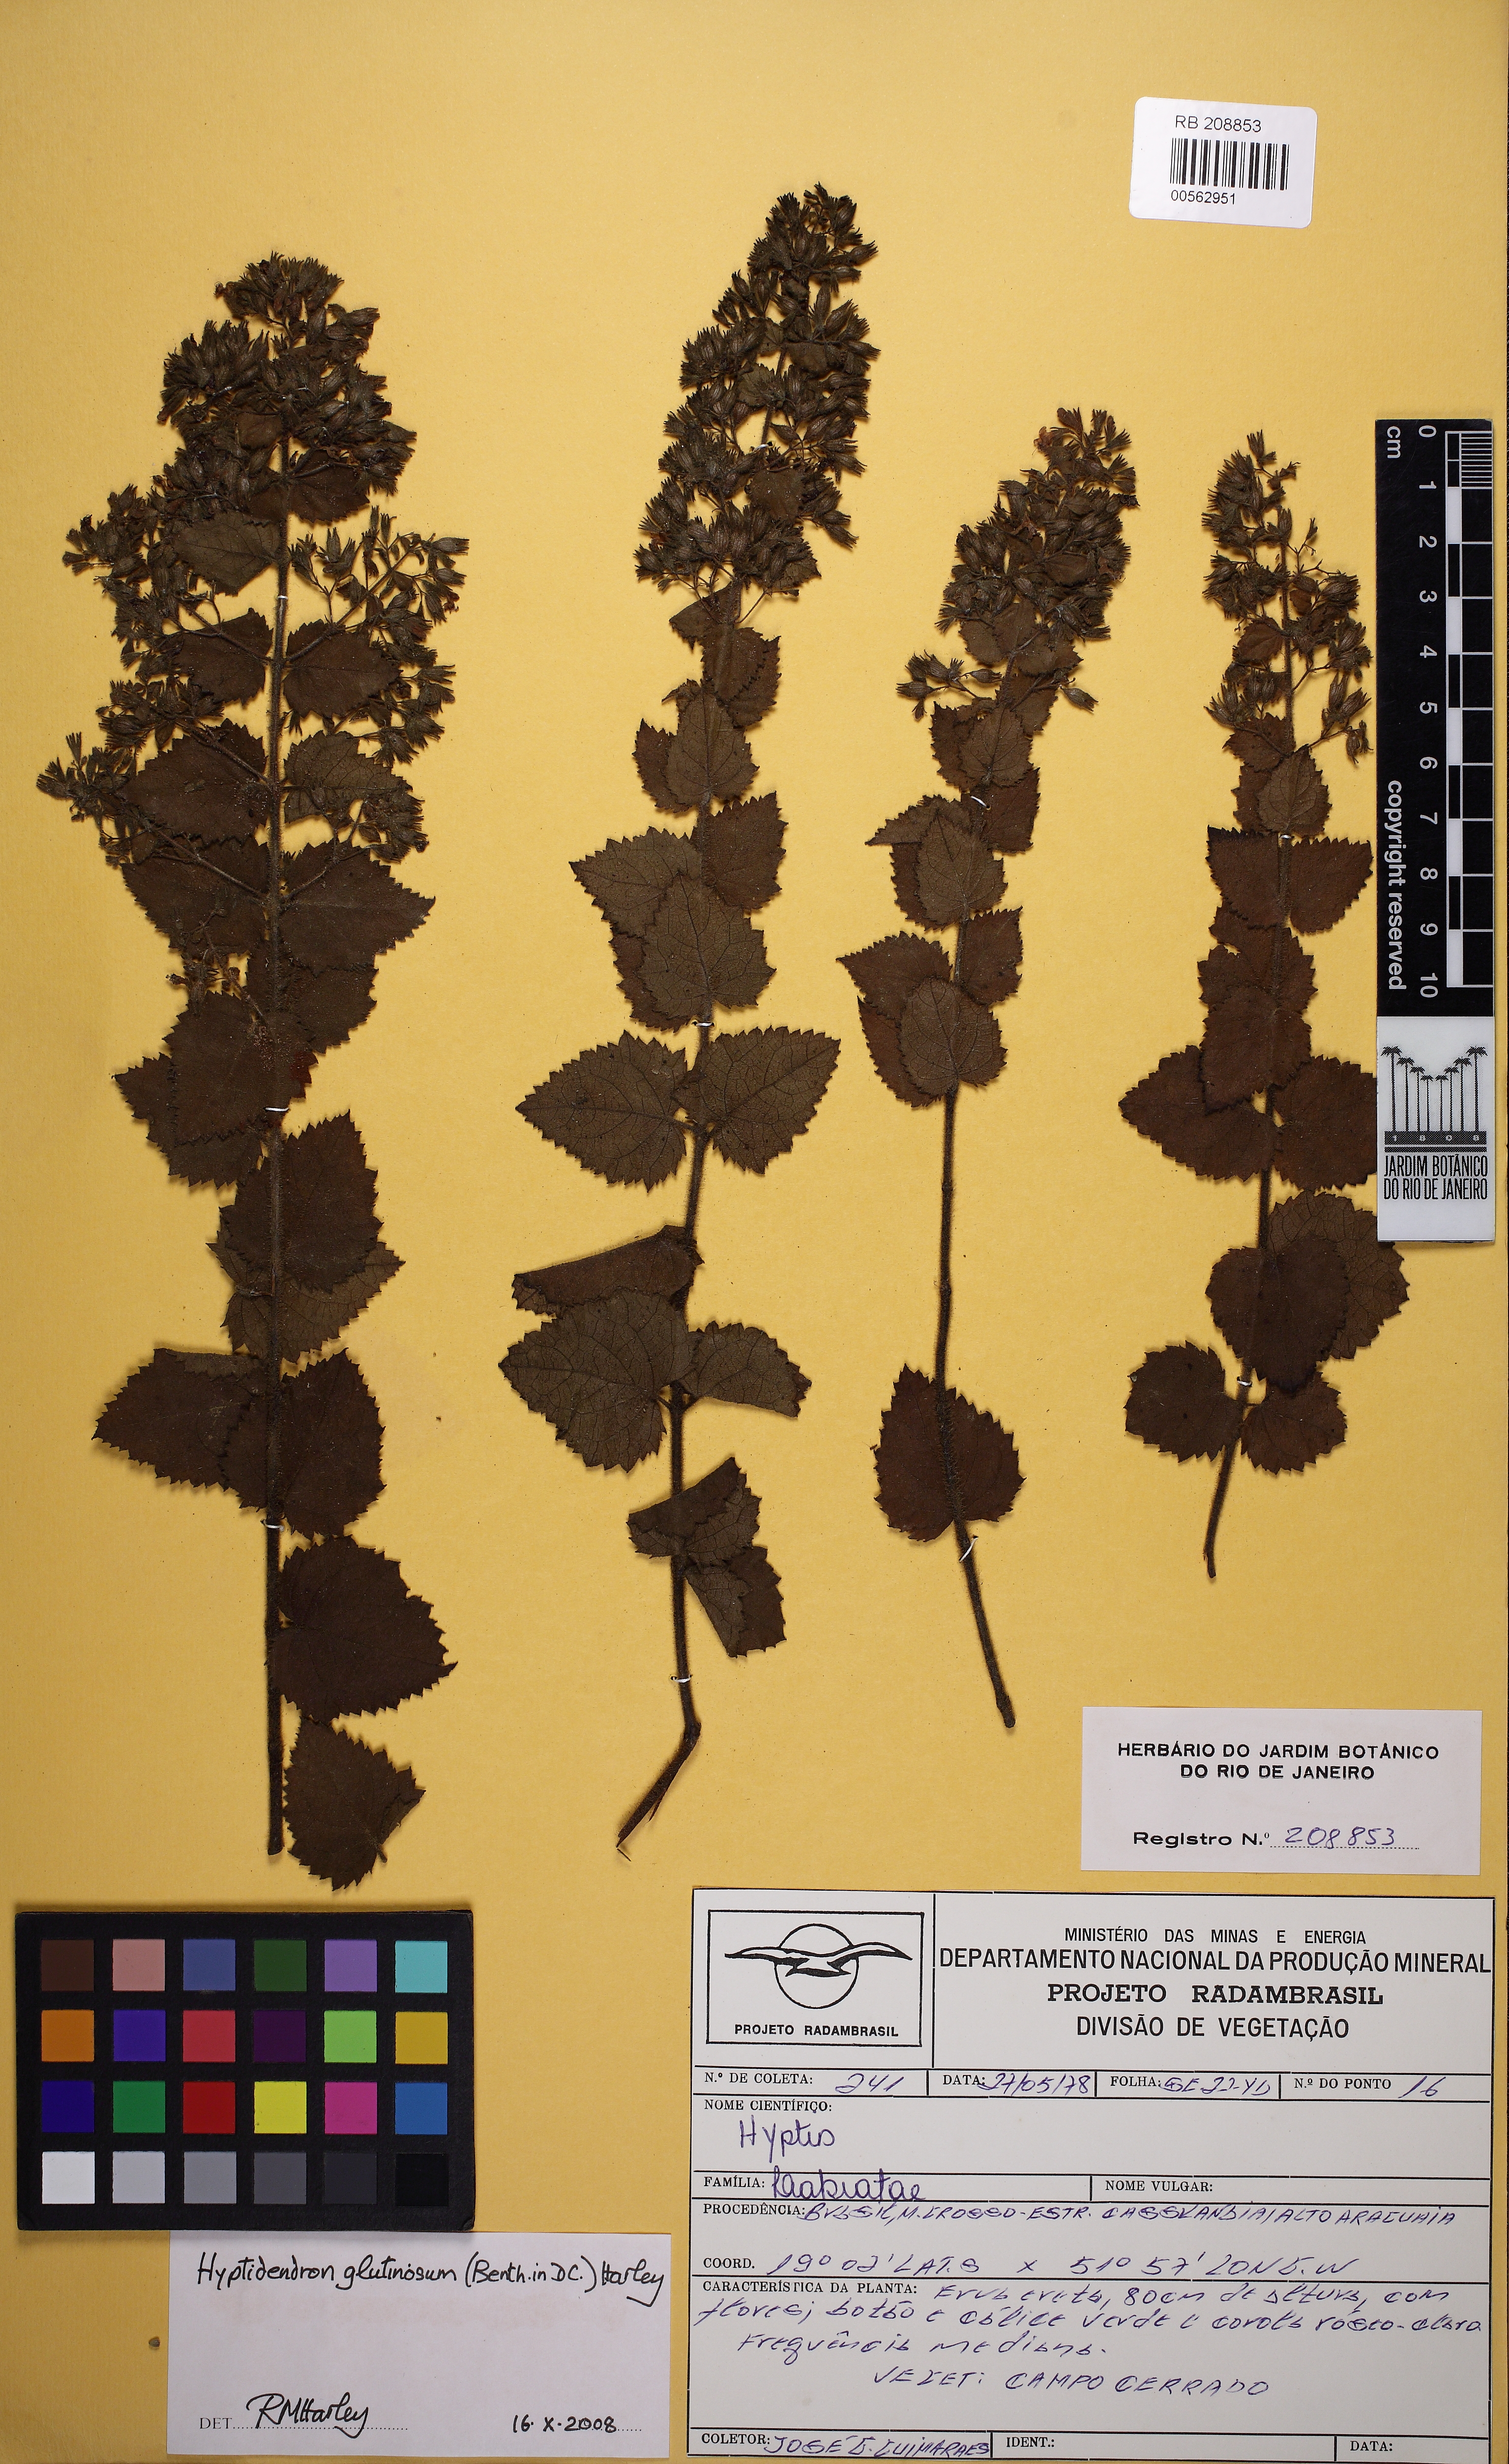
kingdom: Plantae
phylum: Tracheophyta
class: Magnoliopsida
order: Lamiales
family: Lamiaceae
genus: Hyptidendron
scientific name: Hyptidendron glutinosum
